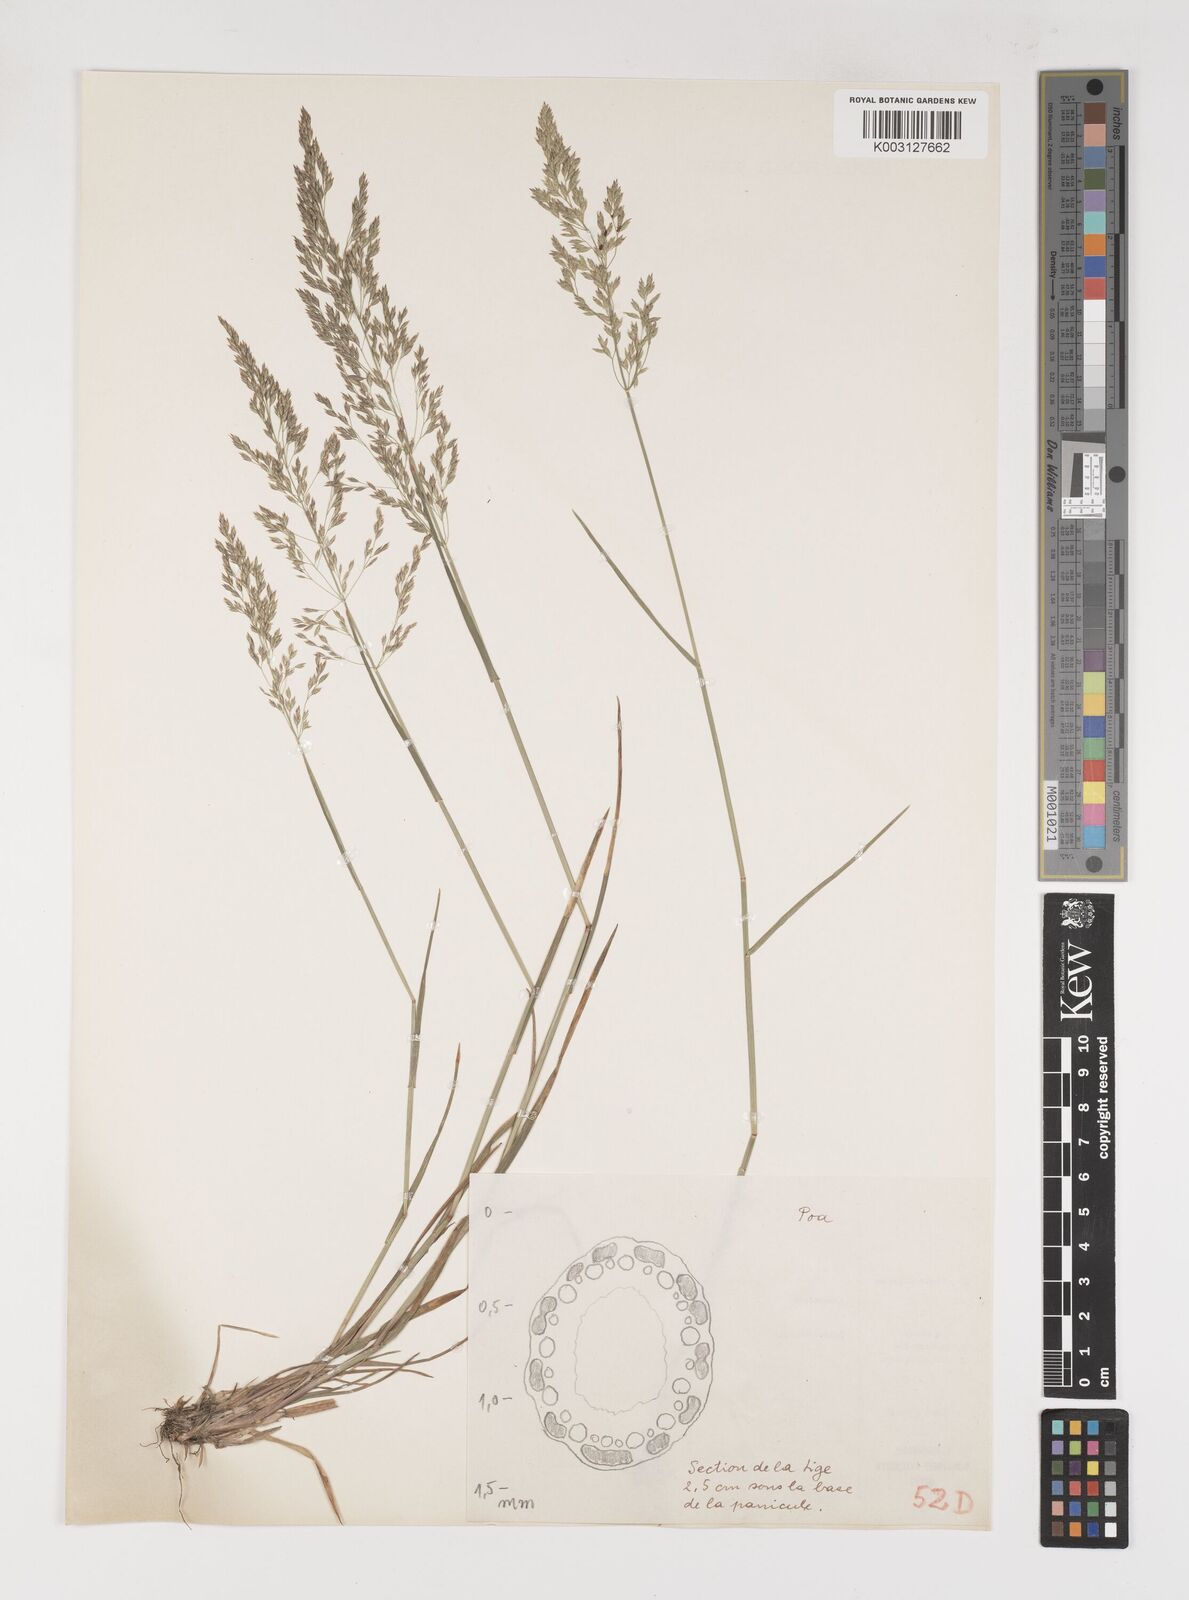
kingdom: Plantae
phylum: Tracheophyta
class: Liliopsida
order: Poales
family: Poaceae
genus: Poa
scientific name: Poa
